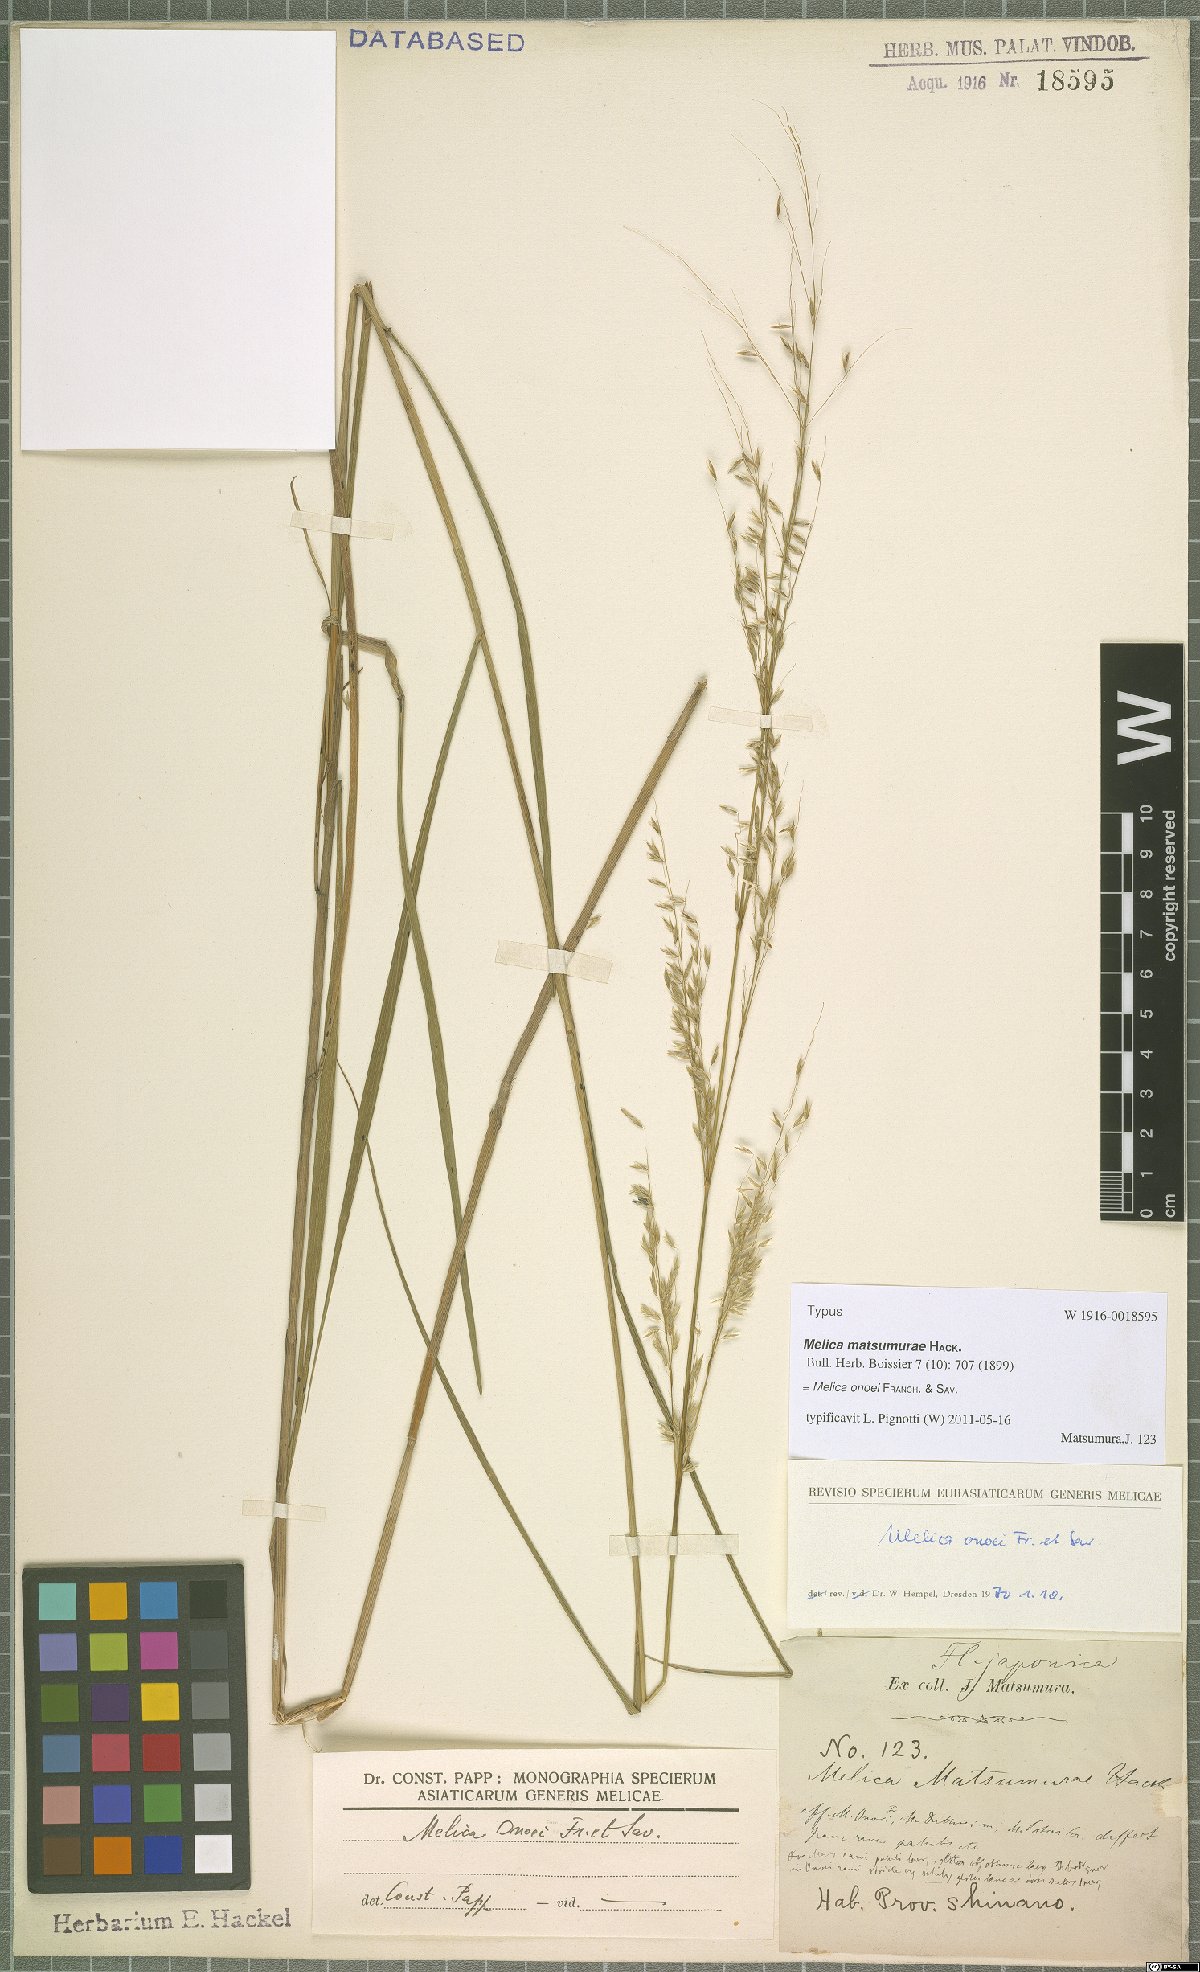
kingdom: Plantae
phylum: Tracheophyta
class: Liliopsida
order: Poales
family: Poaceae
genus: Melica
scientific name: Melica onoei
